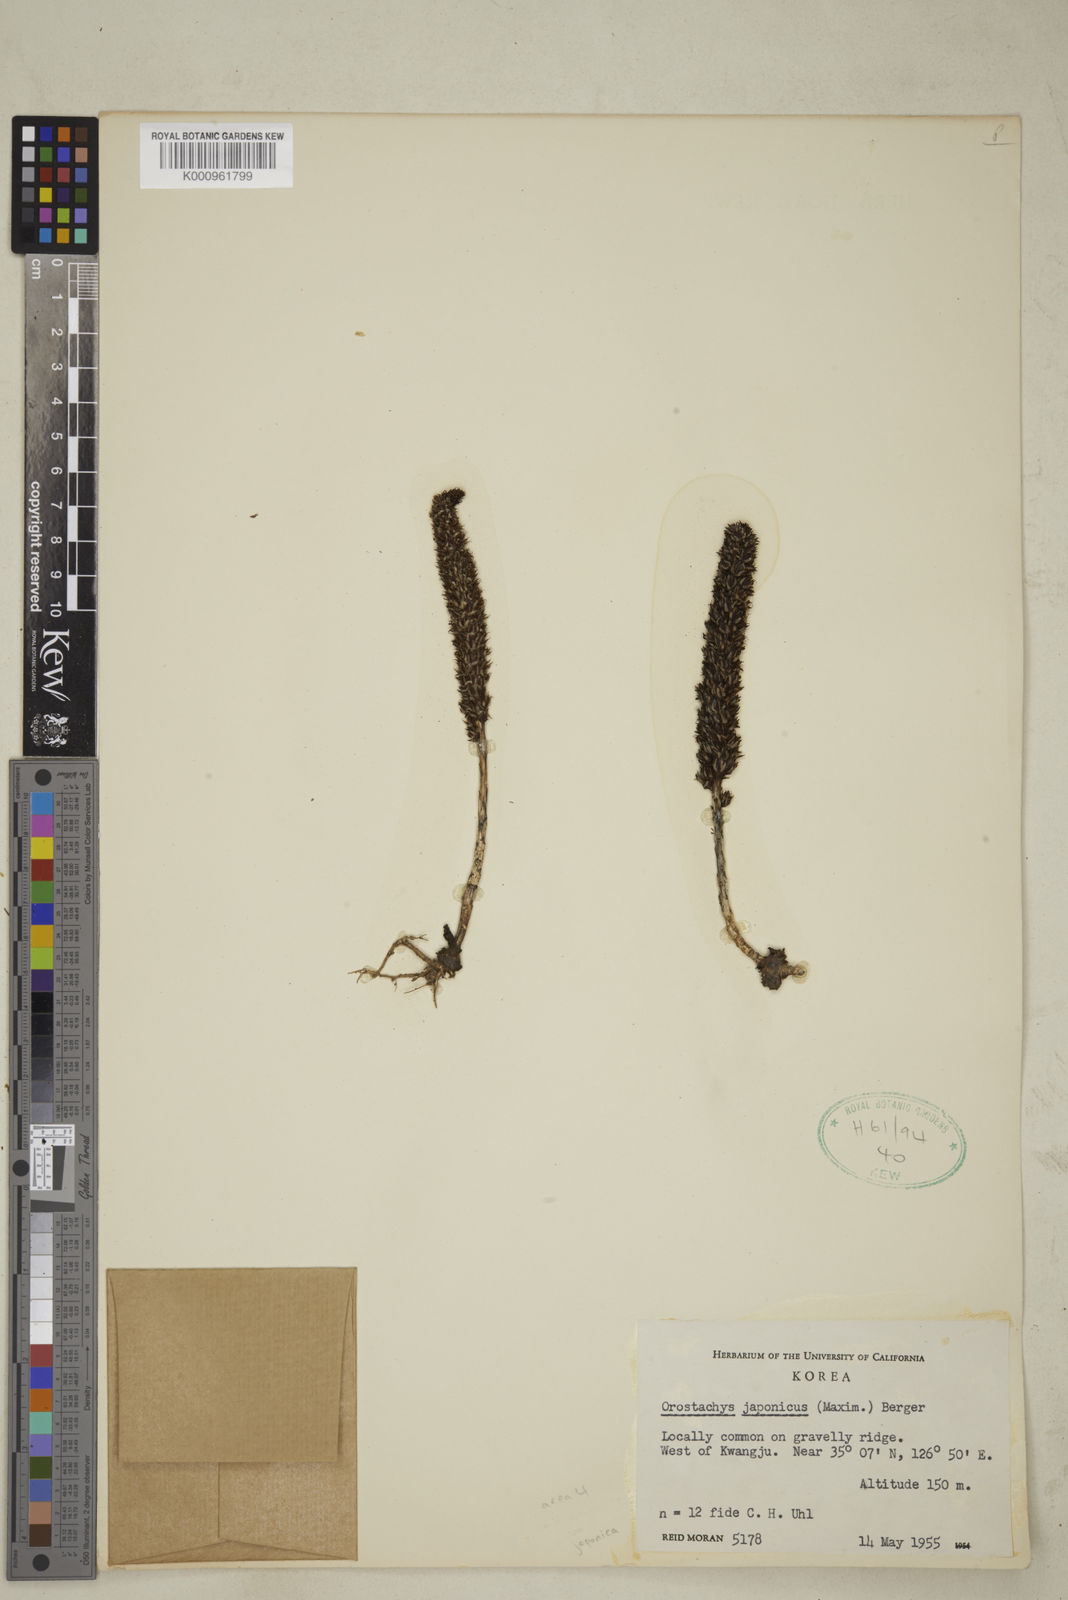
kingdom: Plantae
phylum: Tracheophyta
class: Magnoliopsida
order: Saxifragales
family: Crassulaceae
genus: Orostachys
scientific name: Orostachys japonica
